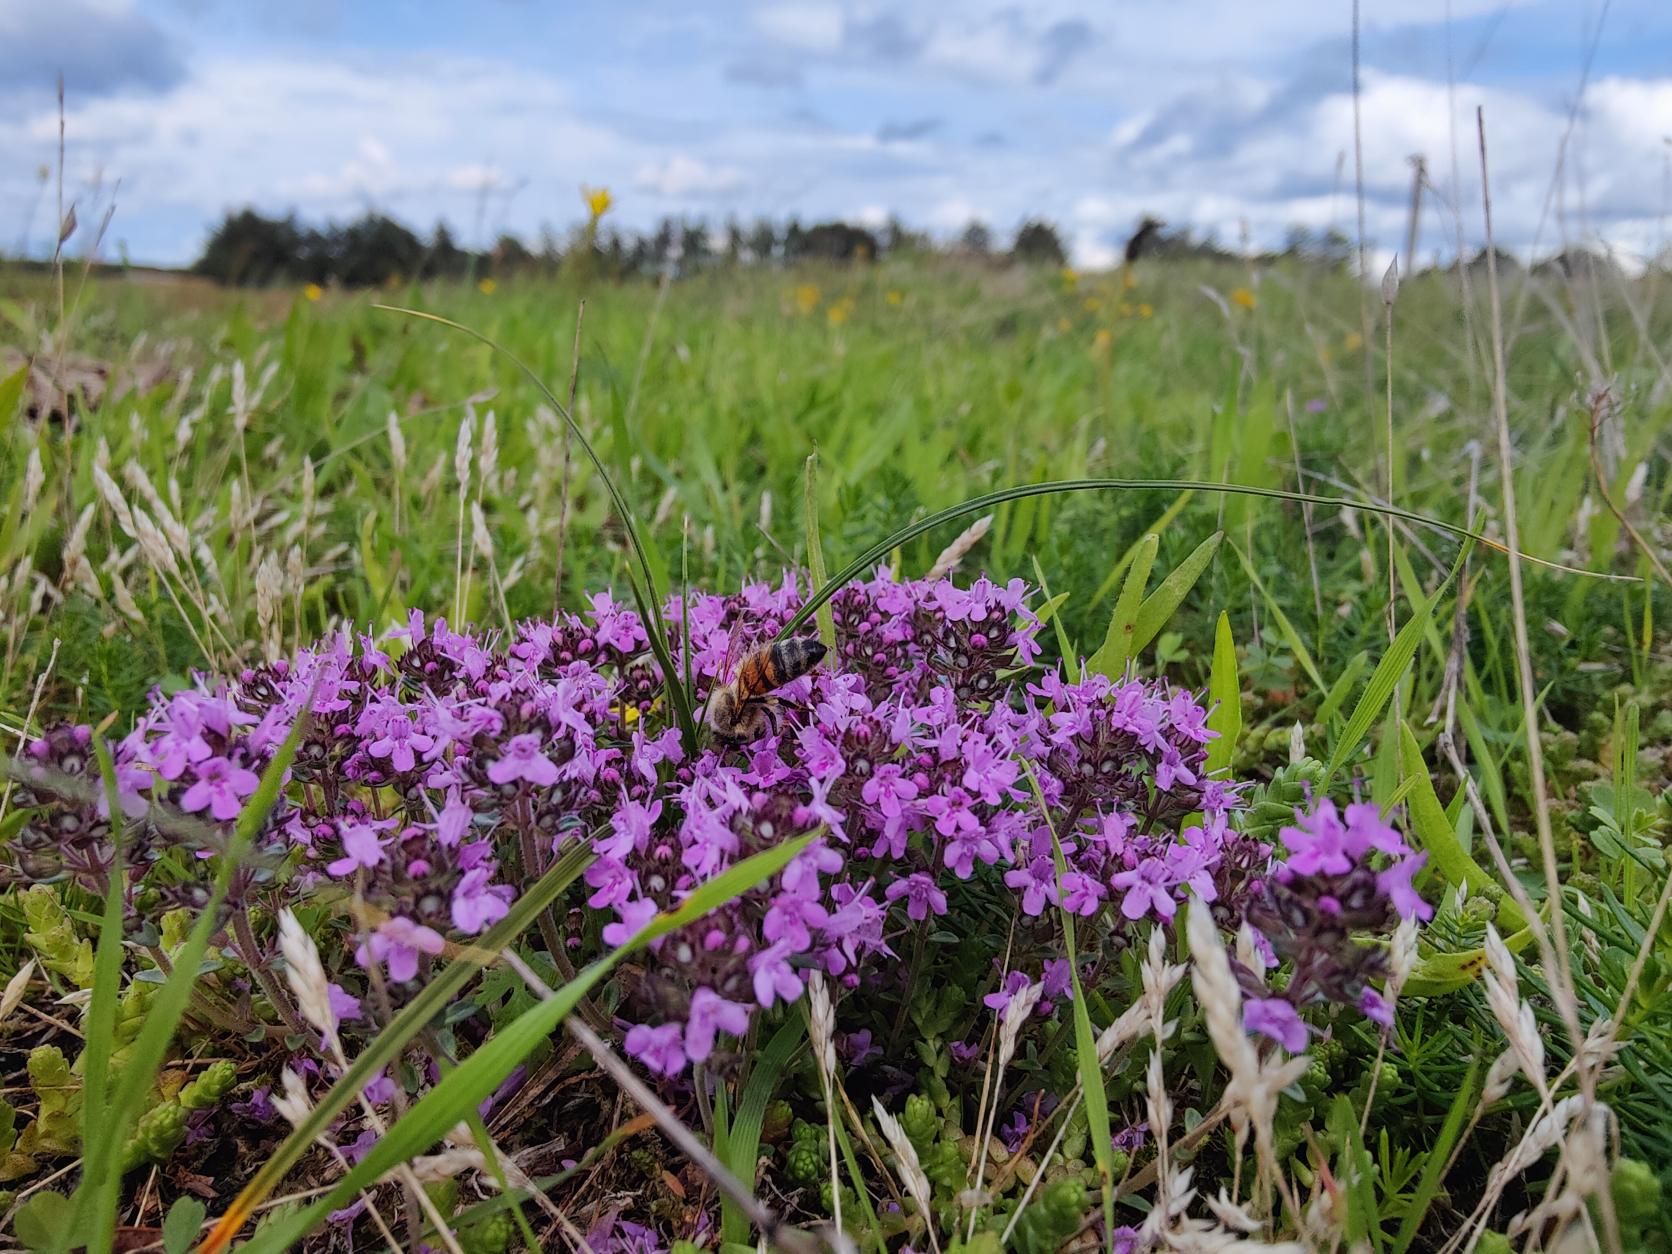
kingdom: Plantae
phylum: Tracheophyta
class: Magnoliopsida
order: Lamiales
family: Lamiaceae
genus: Thymus
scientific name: Thymus serpyllum
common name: Smalbladet timian
